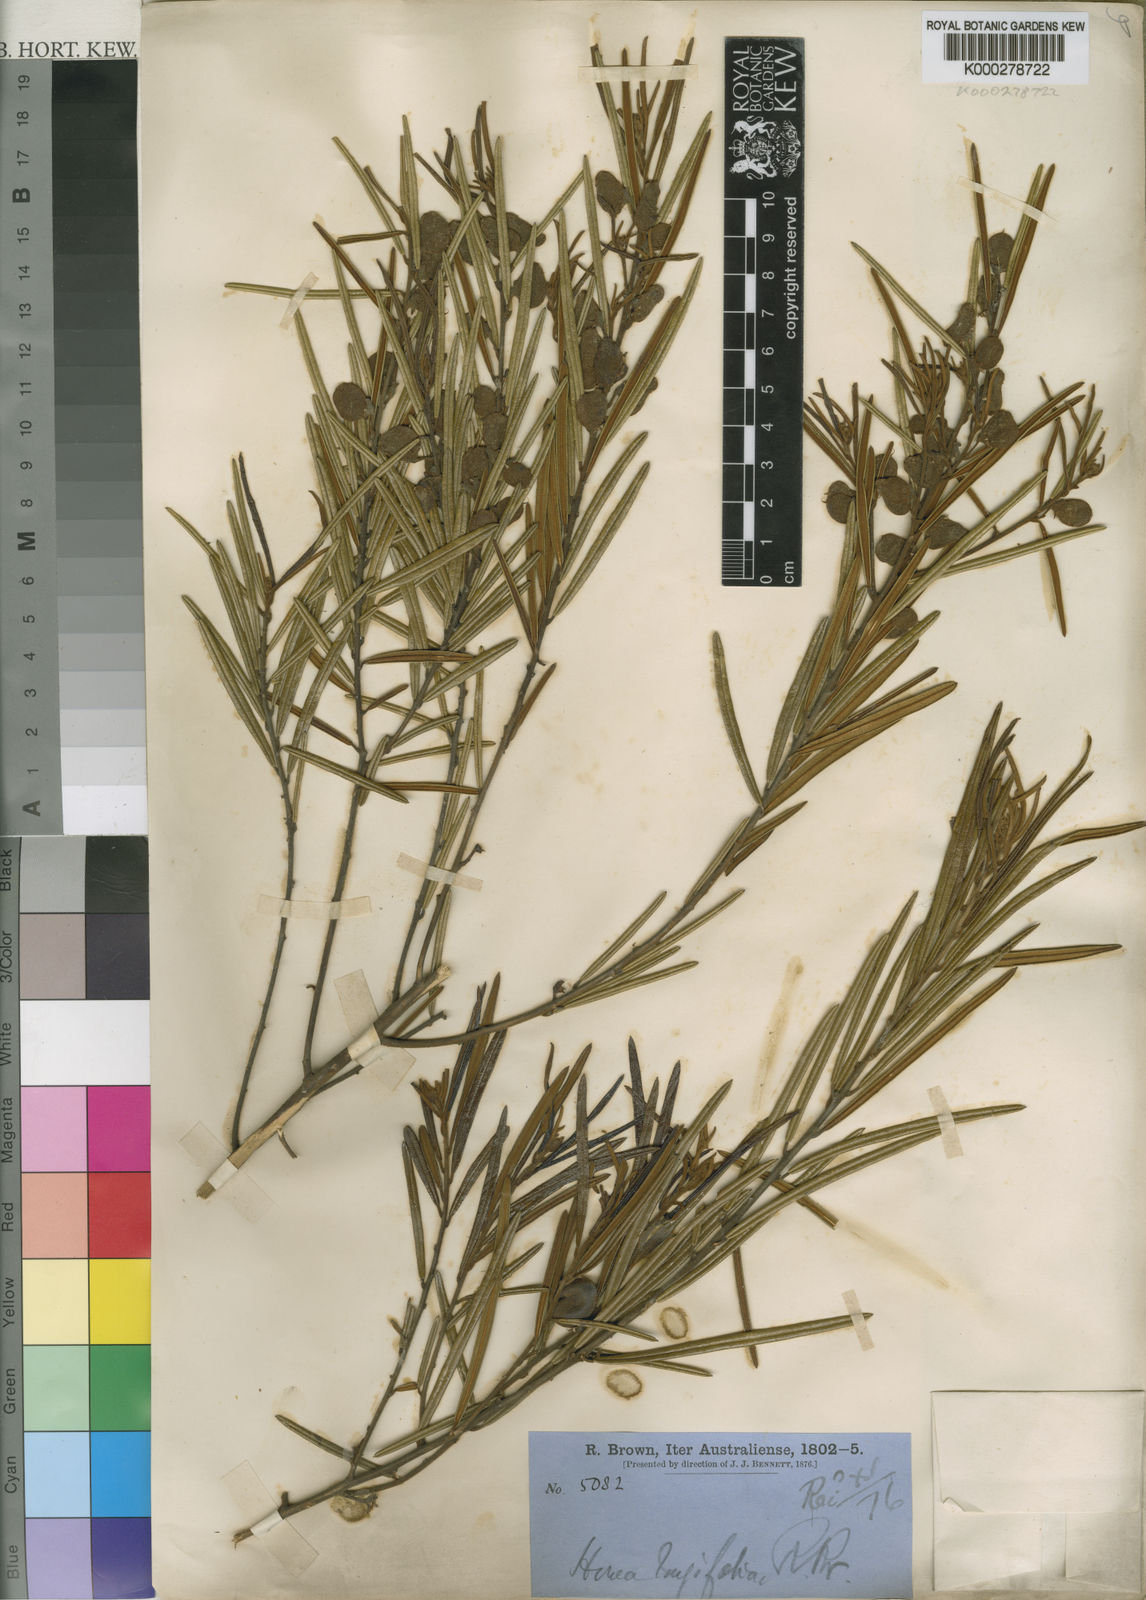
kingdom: Plantae
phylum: Tracheophyta
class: Magnoliopsida
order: Fabales
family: Fabaceae
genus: Hovea
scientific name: Hovea longifolia
